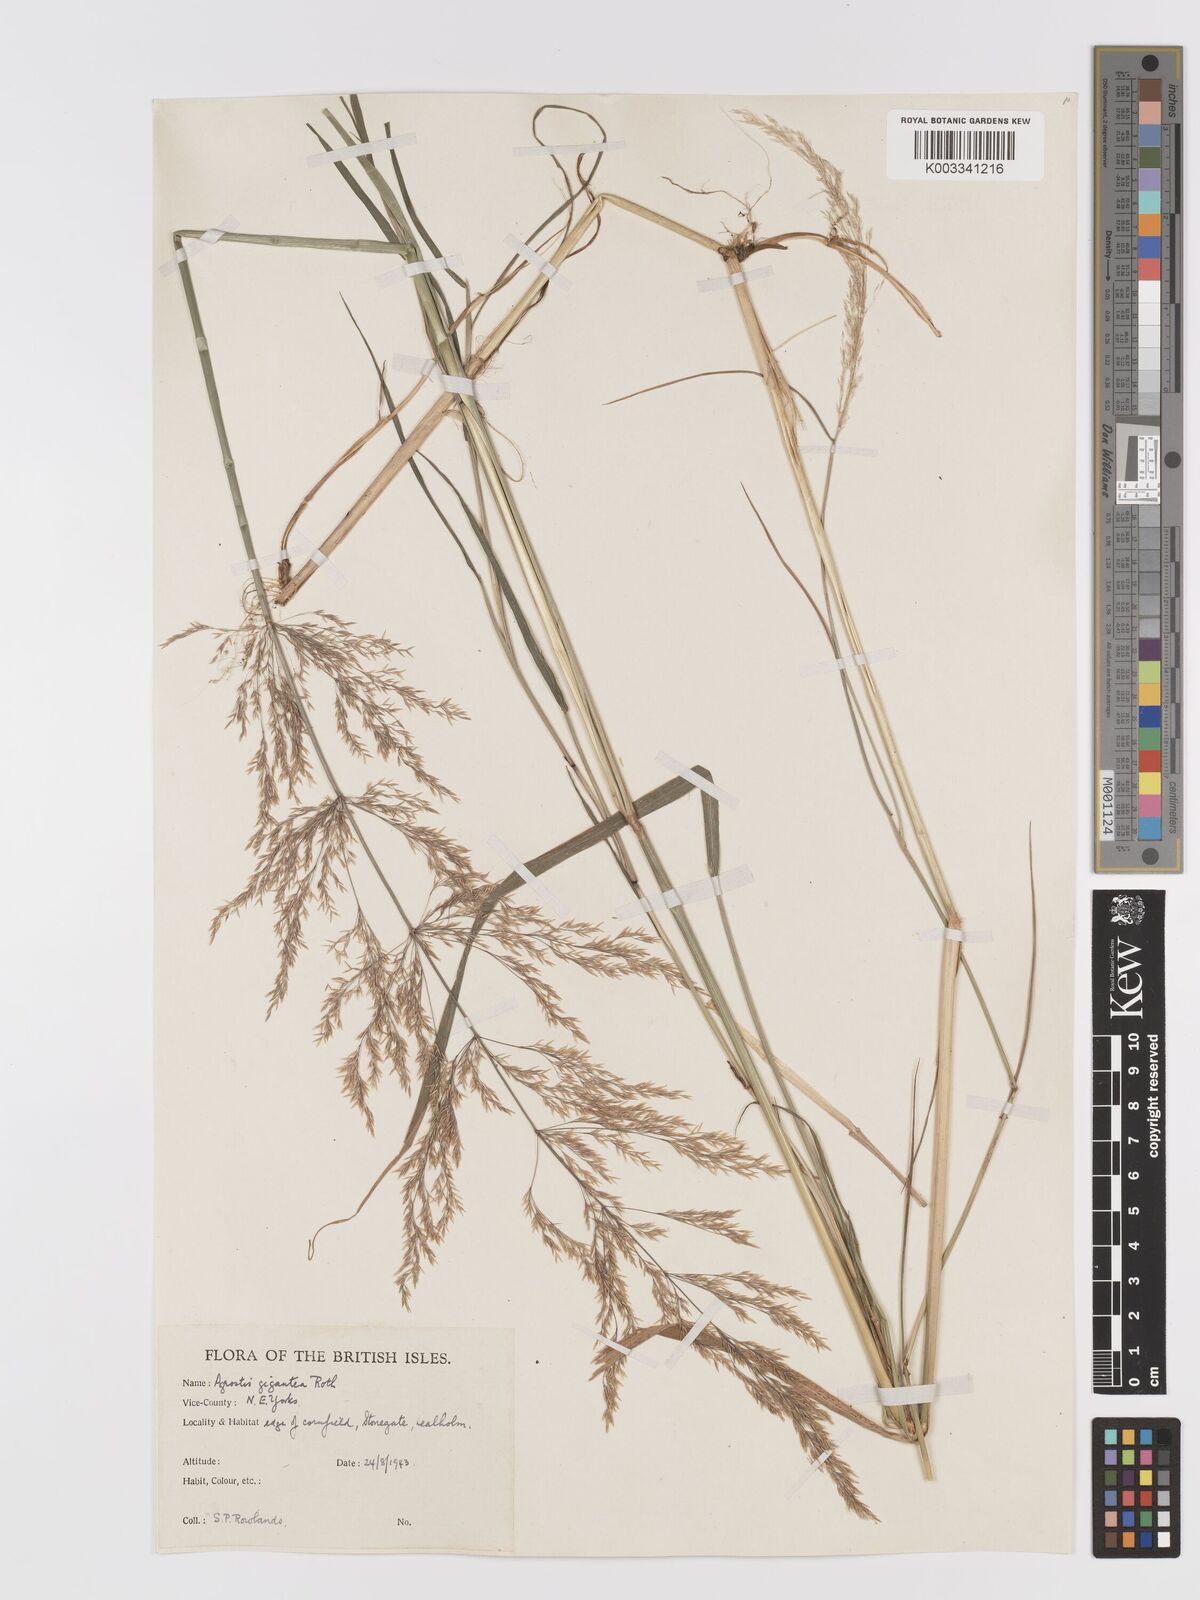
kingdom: Plantae
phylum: Tracheophyta
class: Liliopsida
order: Poales
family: Poaceae
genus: Agrostis
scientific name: Agrostis gigantea
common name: Black bent
